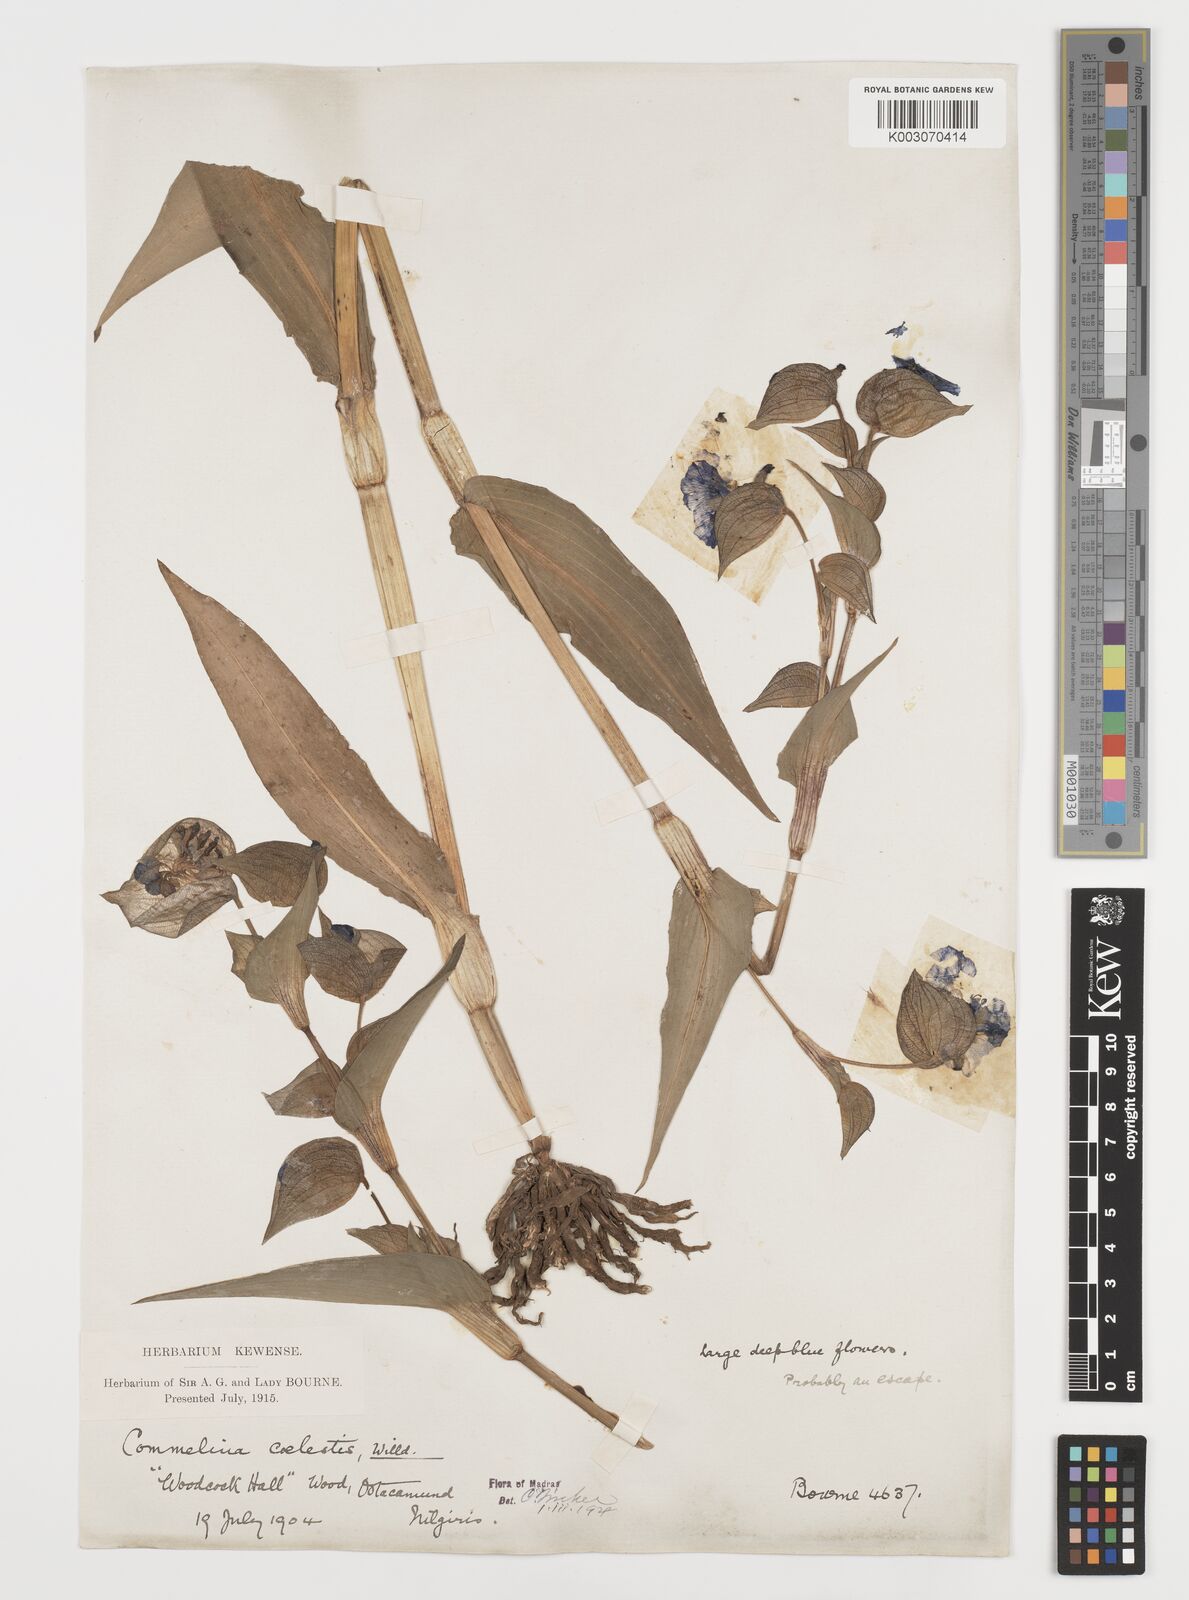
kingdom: Plantae
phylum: Tracheophyta
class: Liliopsida
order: Commelinales
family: Commelinaceae
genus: Commelina
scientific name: Commelina tuberosa
